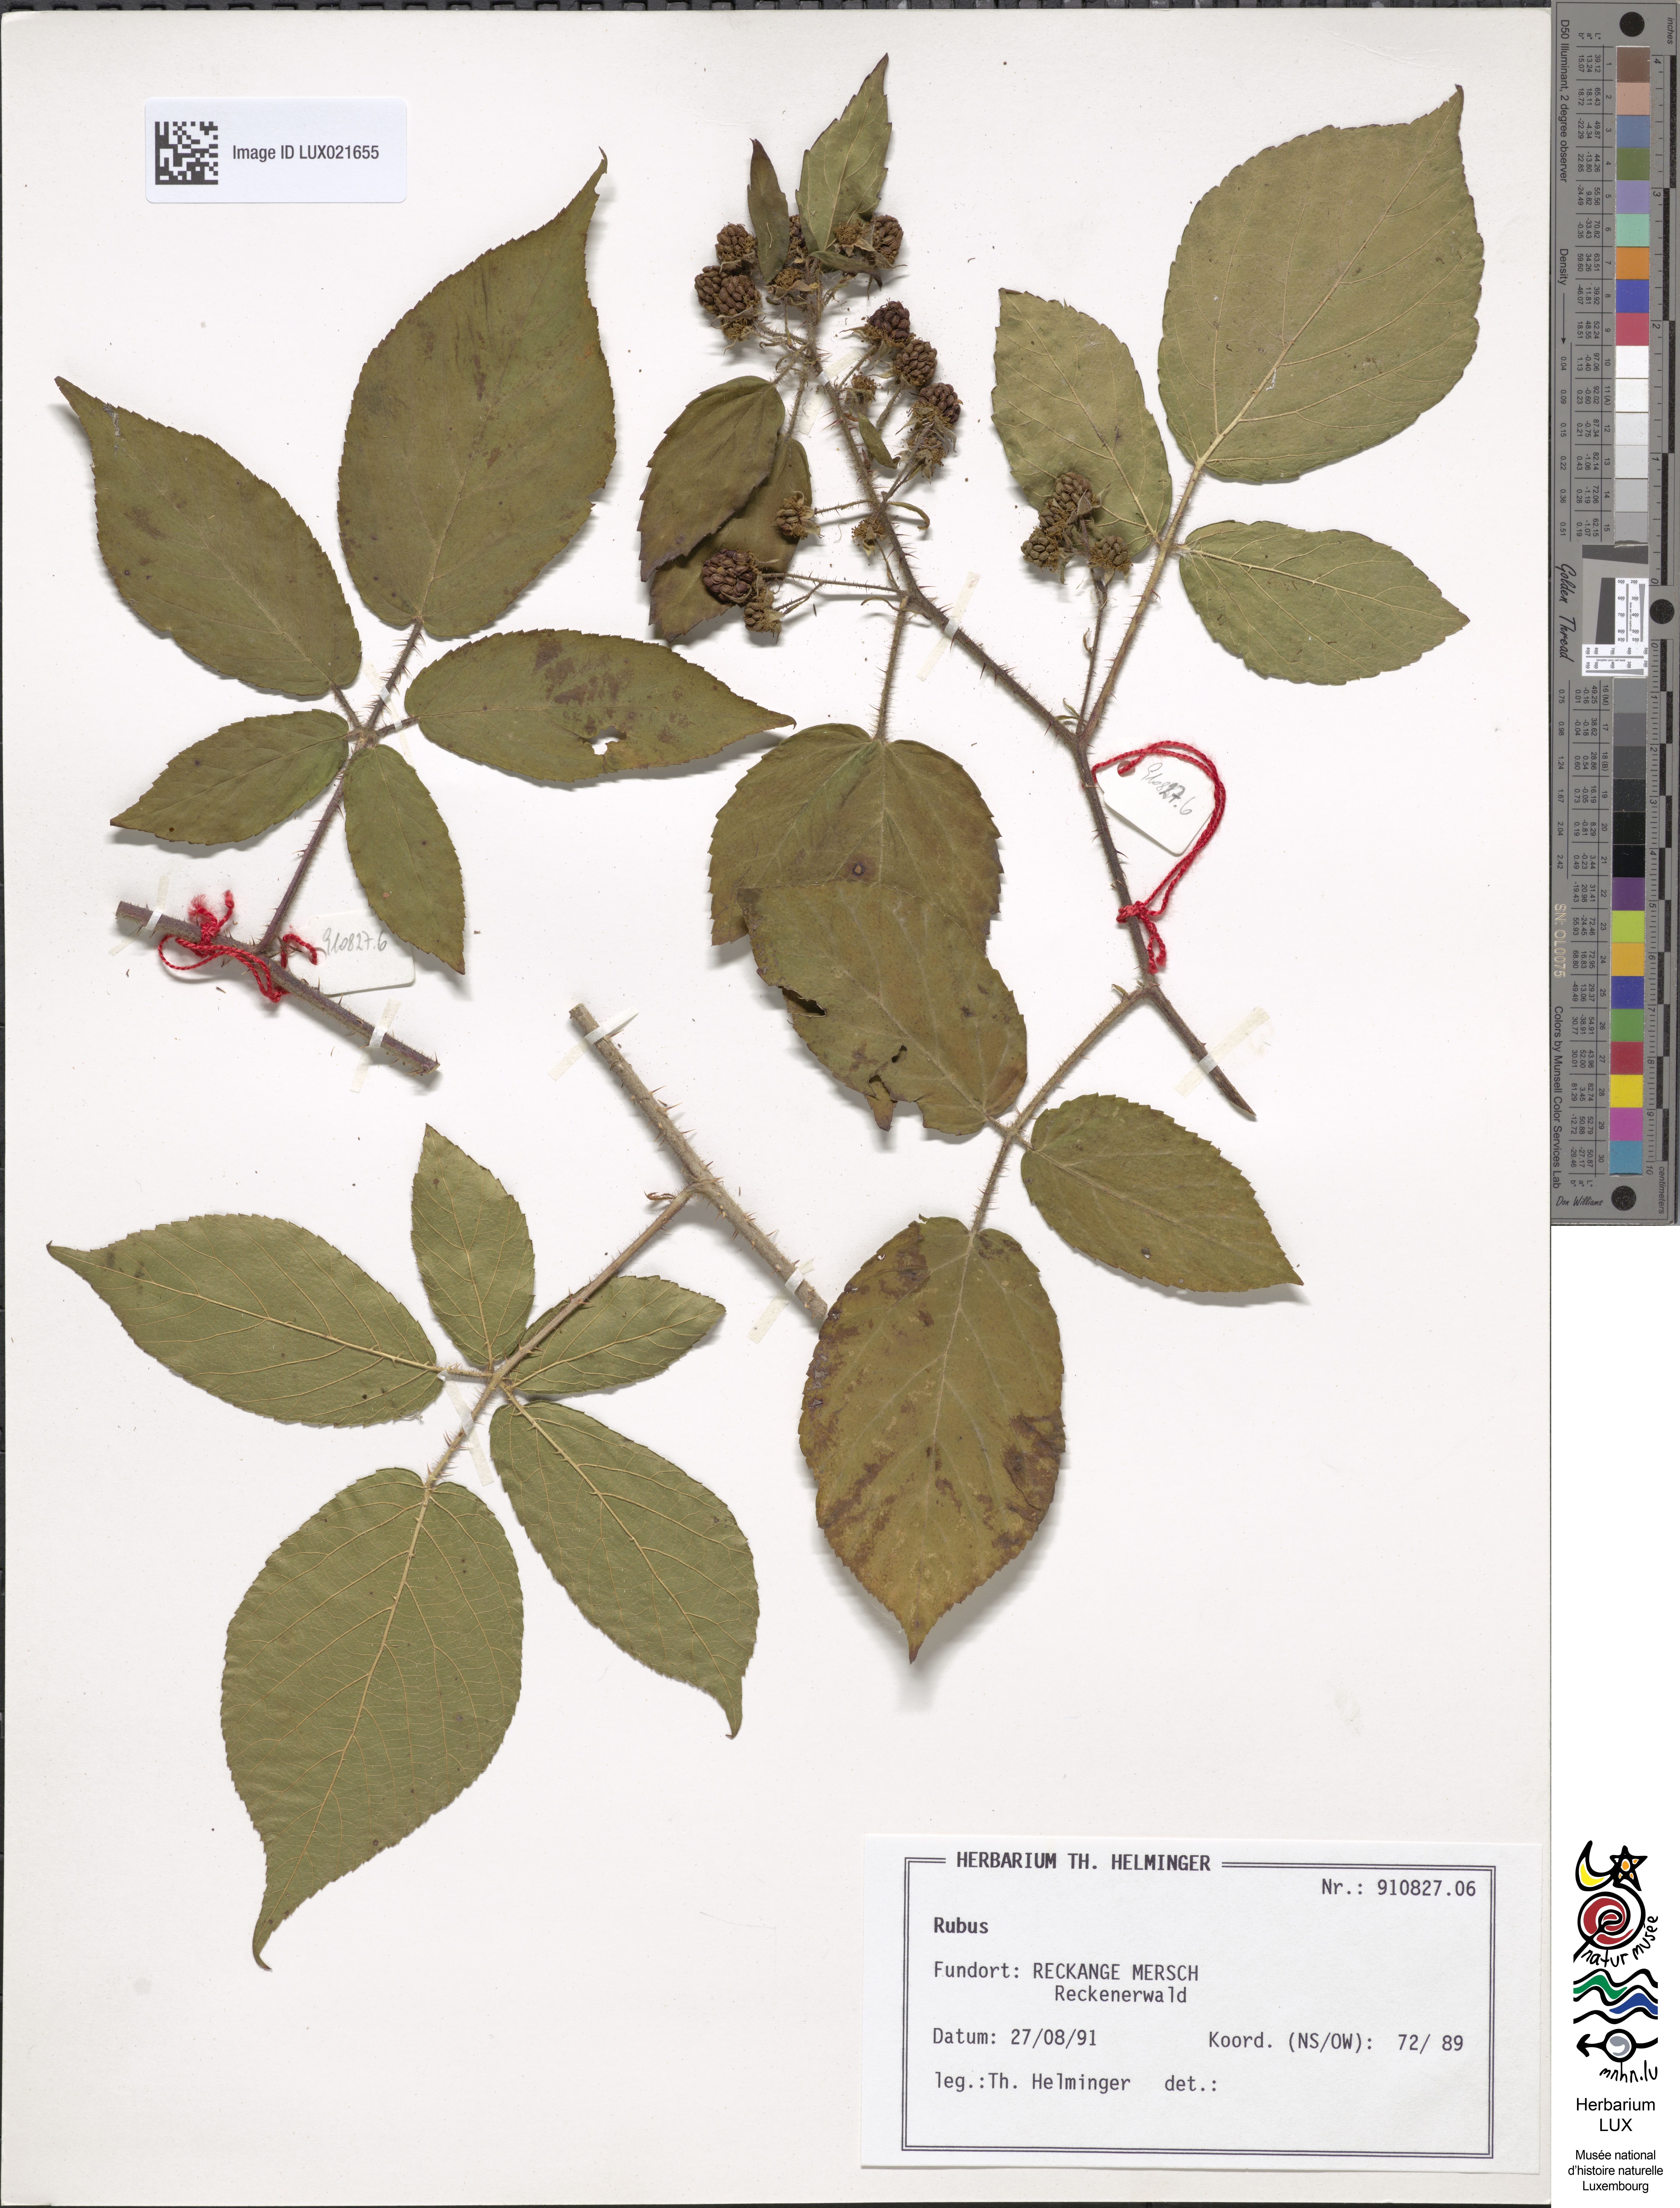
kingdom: Plantae
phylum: Tracheophyta
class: Magnoliopsida
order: Rosales
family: Rosaceae
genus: Rubus
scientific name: Rubus
